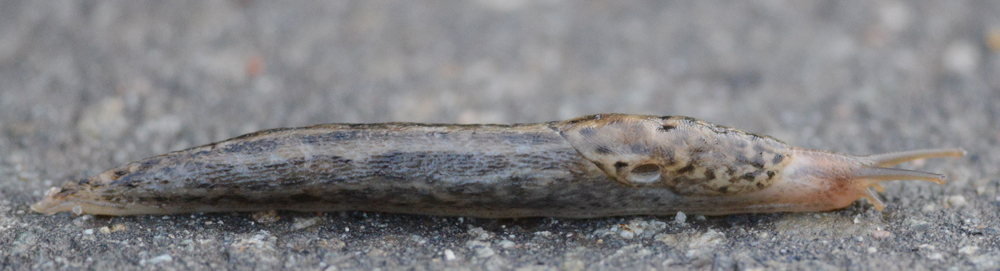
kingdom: Animalia
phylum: Mollusca
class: Gastropoda
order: Stylommatophora
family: Limacidae
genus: Limax
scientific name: Limax maximus
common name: Great grey slug
